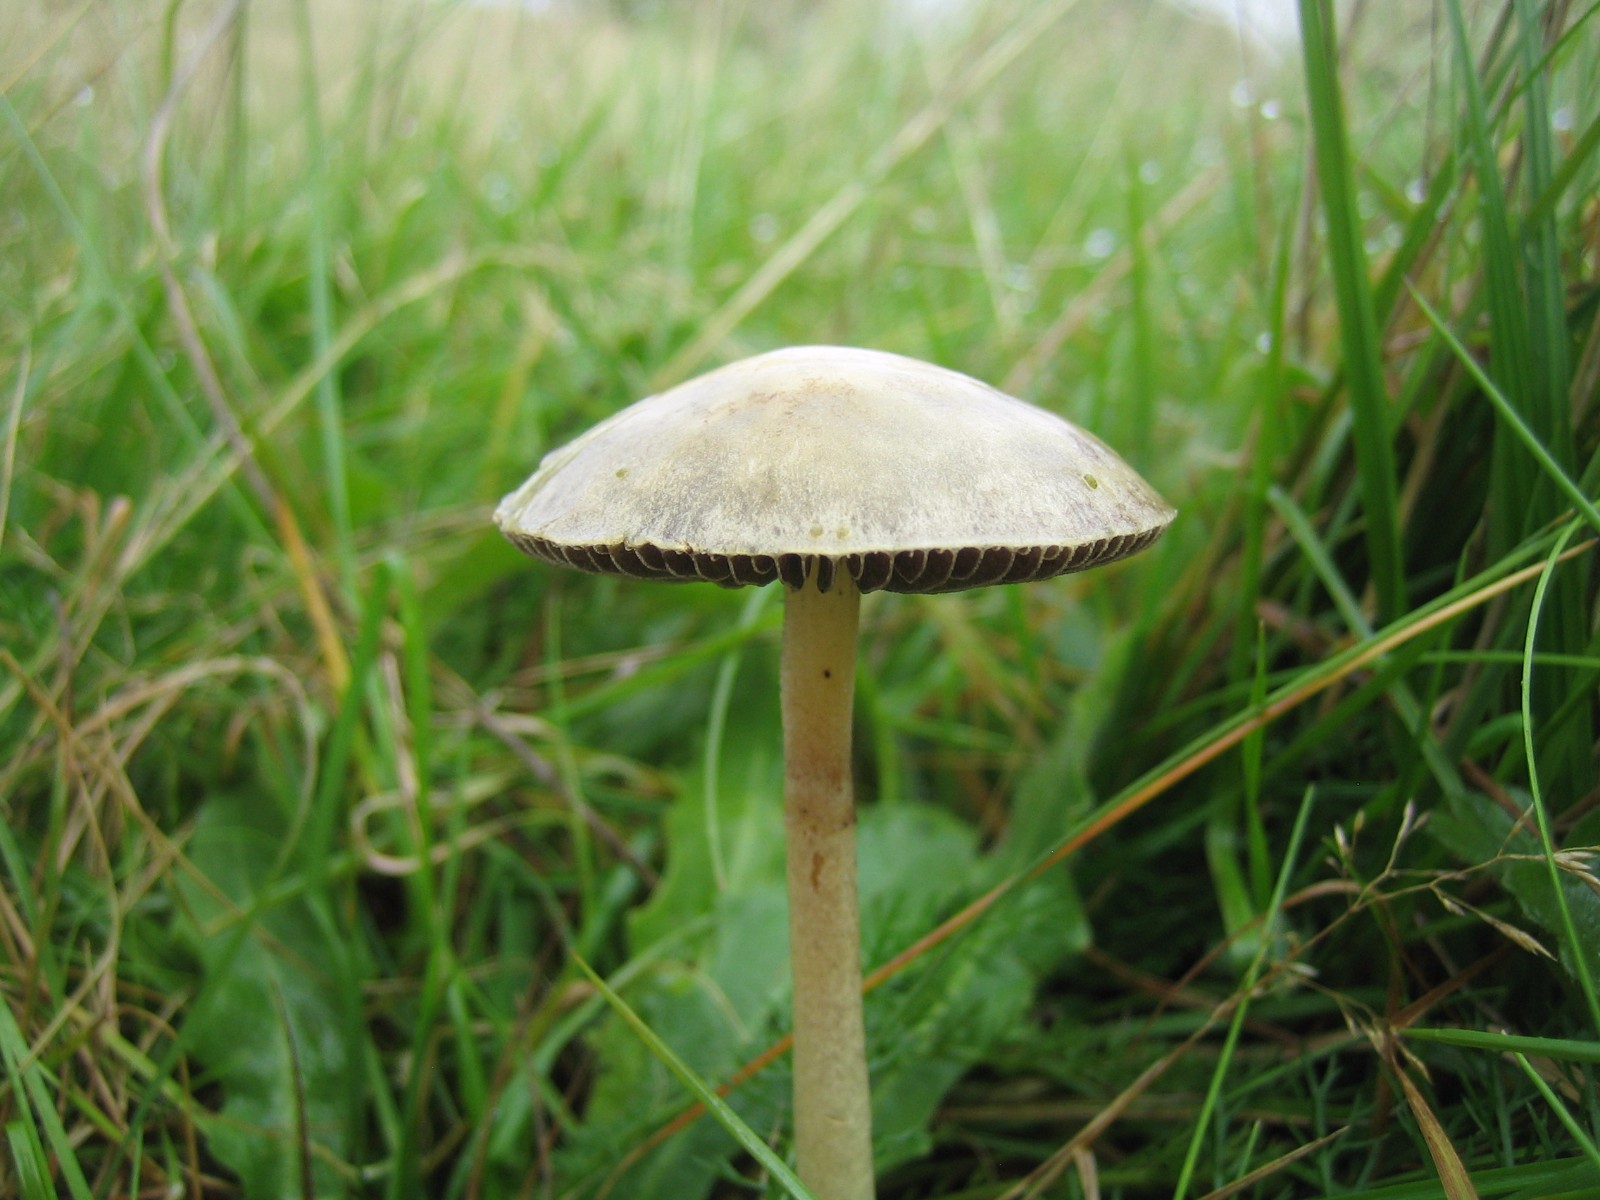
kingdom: Fungi
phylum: Basidiomycota
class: Agaricomycetes
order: Agaricales
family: Strophariaceae
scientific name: Strophariaceae
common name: bredbladfamilien
